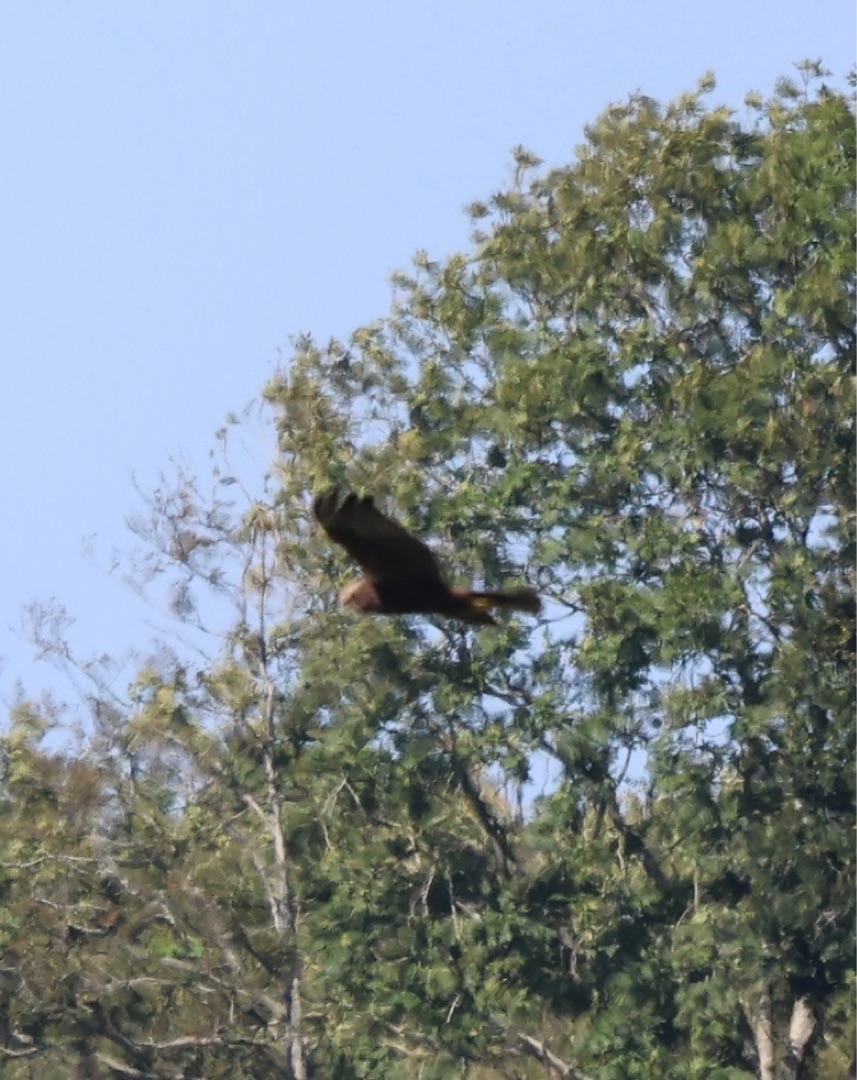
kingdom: Animalia
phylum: Chordata
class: Aves
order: Accipitriformes
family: Accipitridae
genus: Circus
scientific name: Circus aeruginosus
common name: Rørhøg
